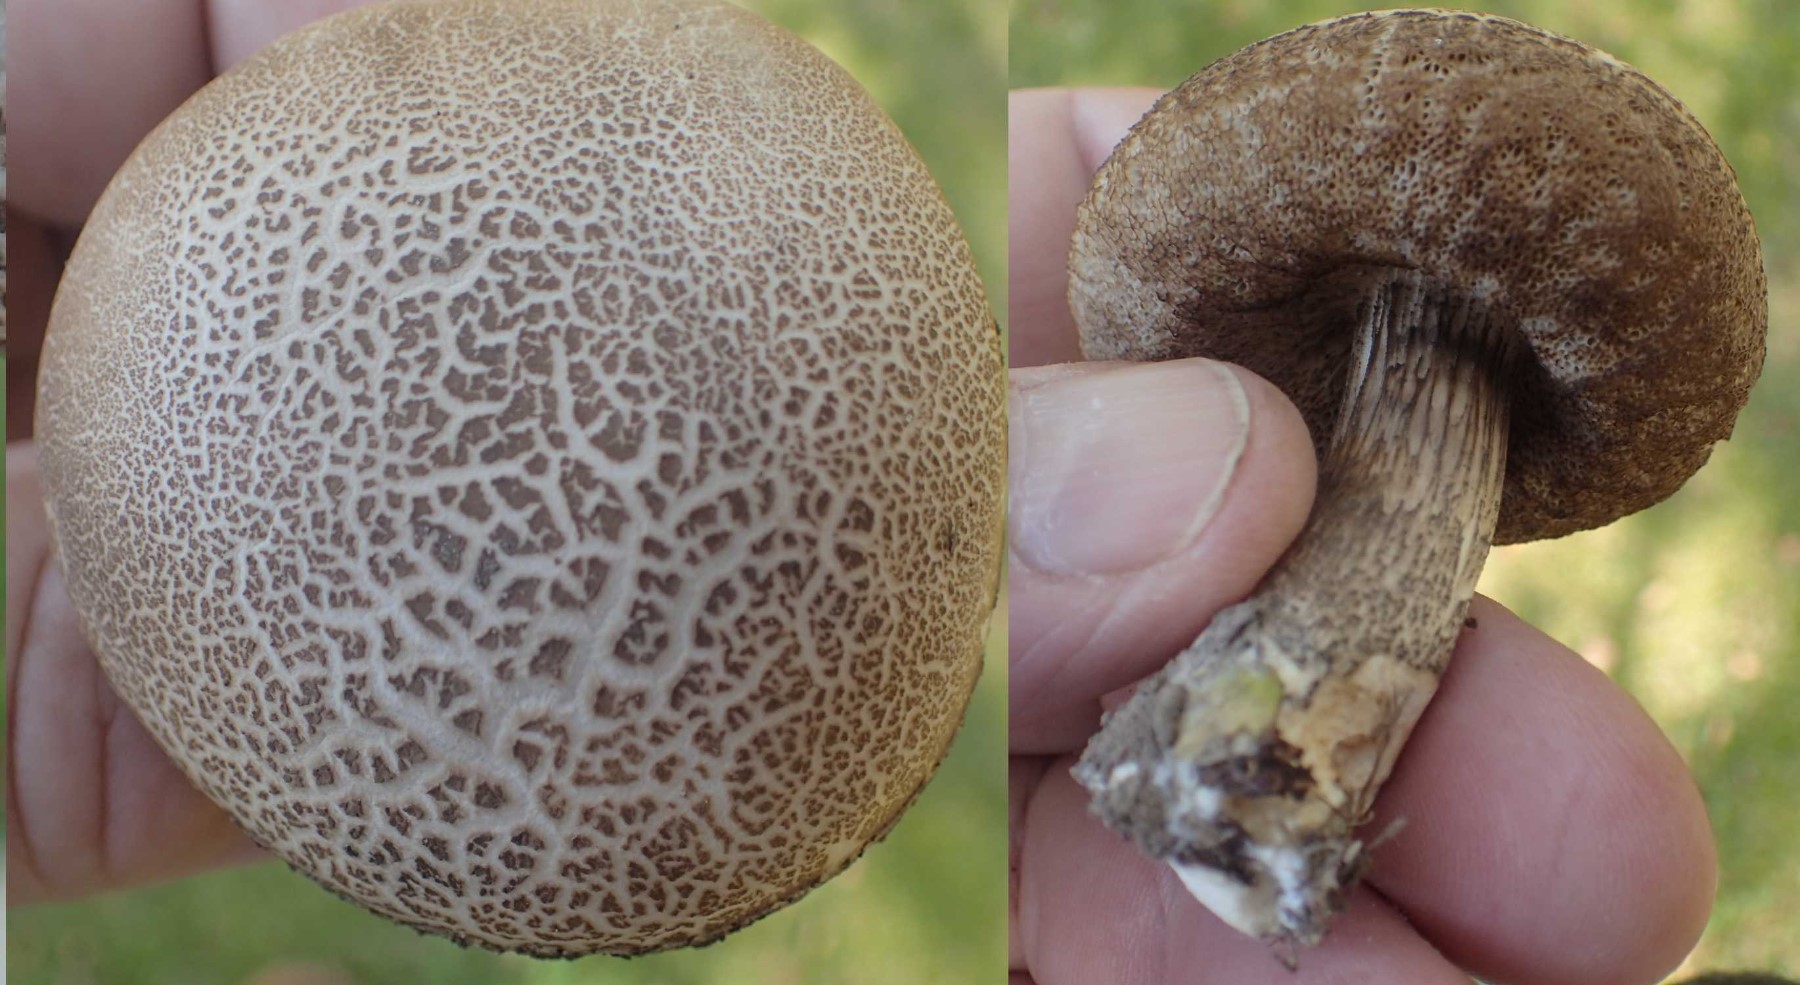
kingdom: Fungi
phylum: Basidiomycota
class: Agaricomycetes
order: Boletales
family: Boletaceae
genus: Leccinum
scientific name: Leccinum
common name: skælrørhat
